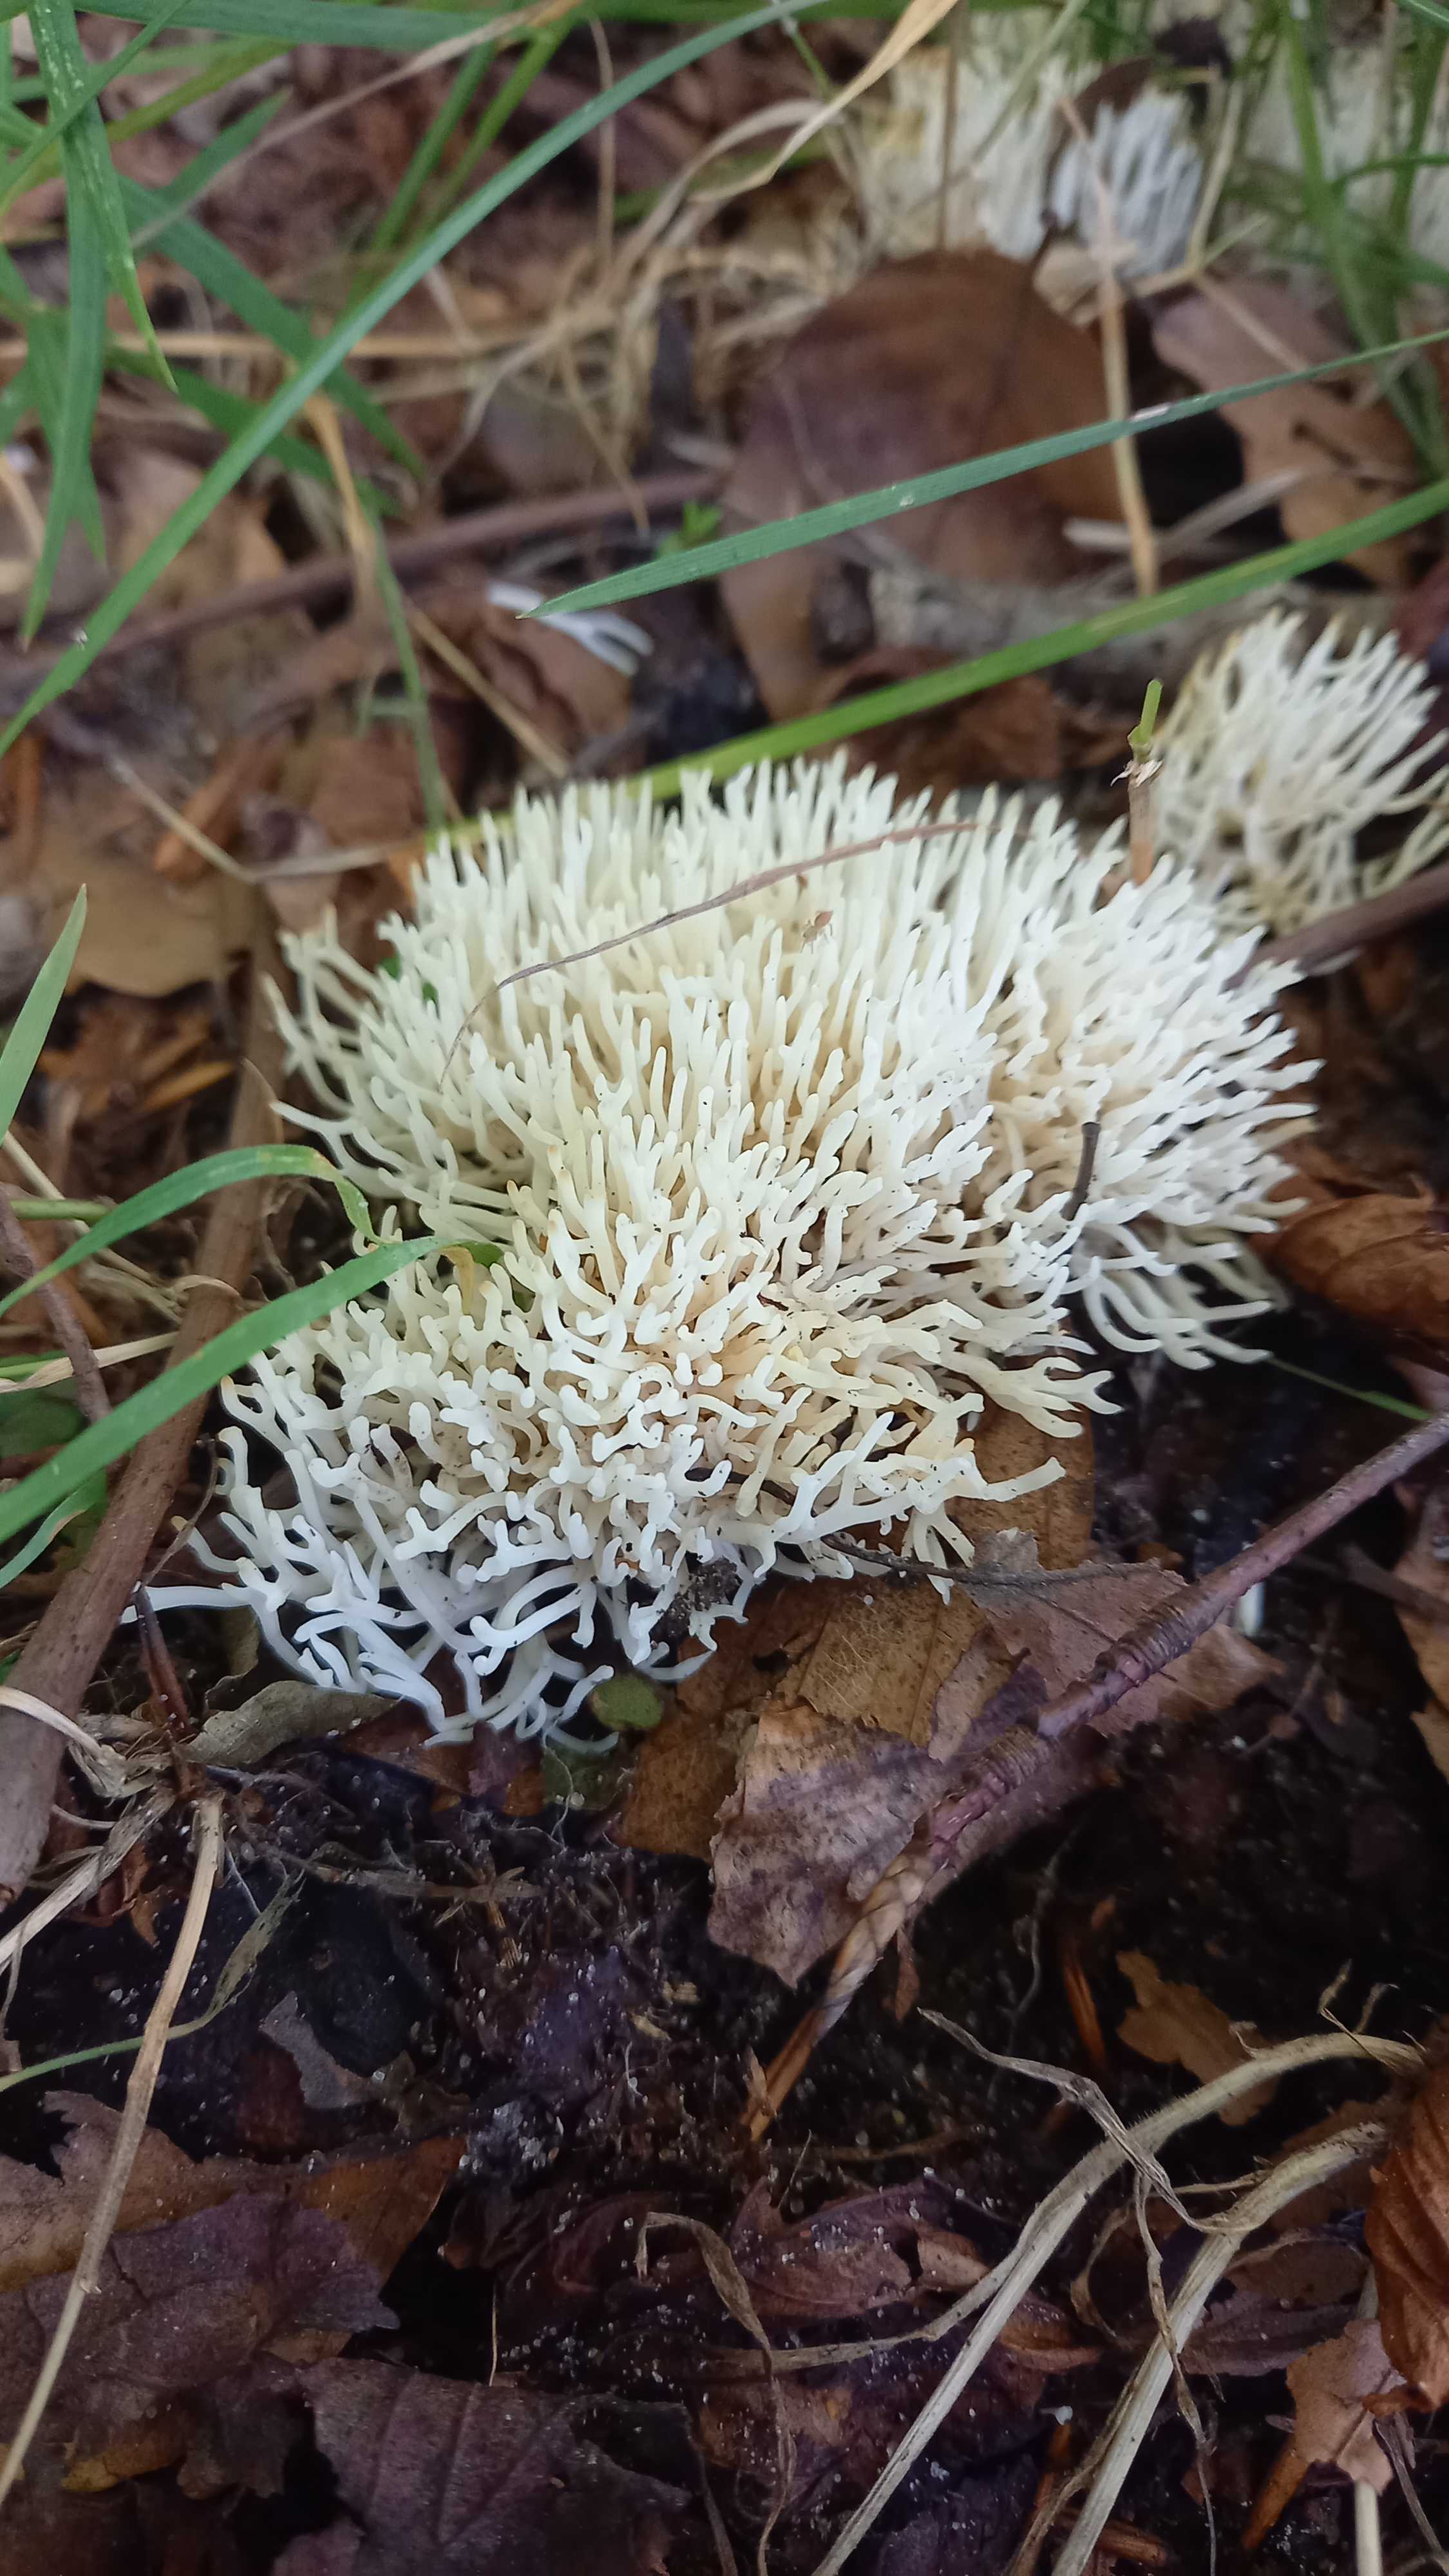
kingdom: Fungi
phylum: Basidiomycota
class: Agaricomycetes
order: Agaricales
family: Clavariaceae
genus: Ramariopsis
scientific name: Ramariopsis kunzei
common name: mangegrenet køllesvamp
